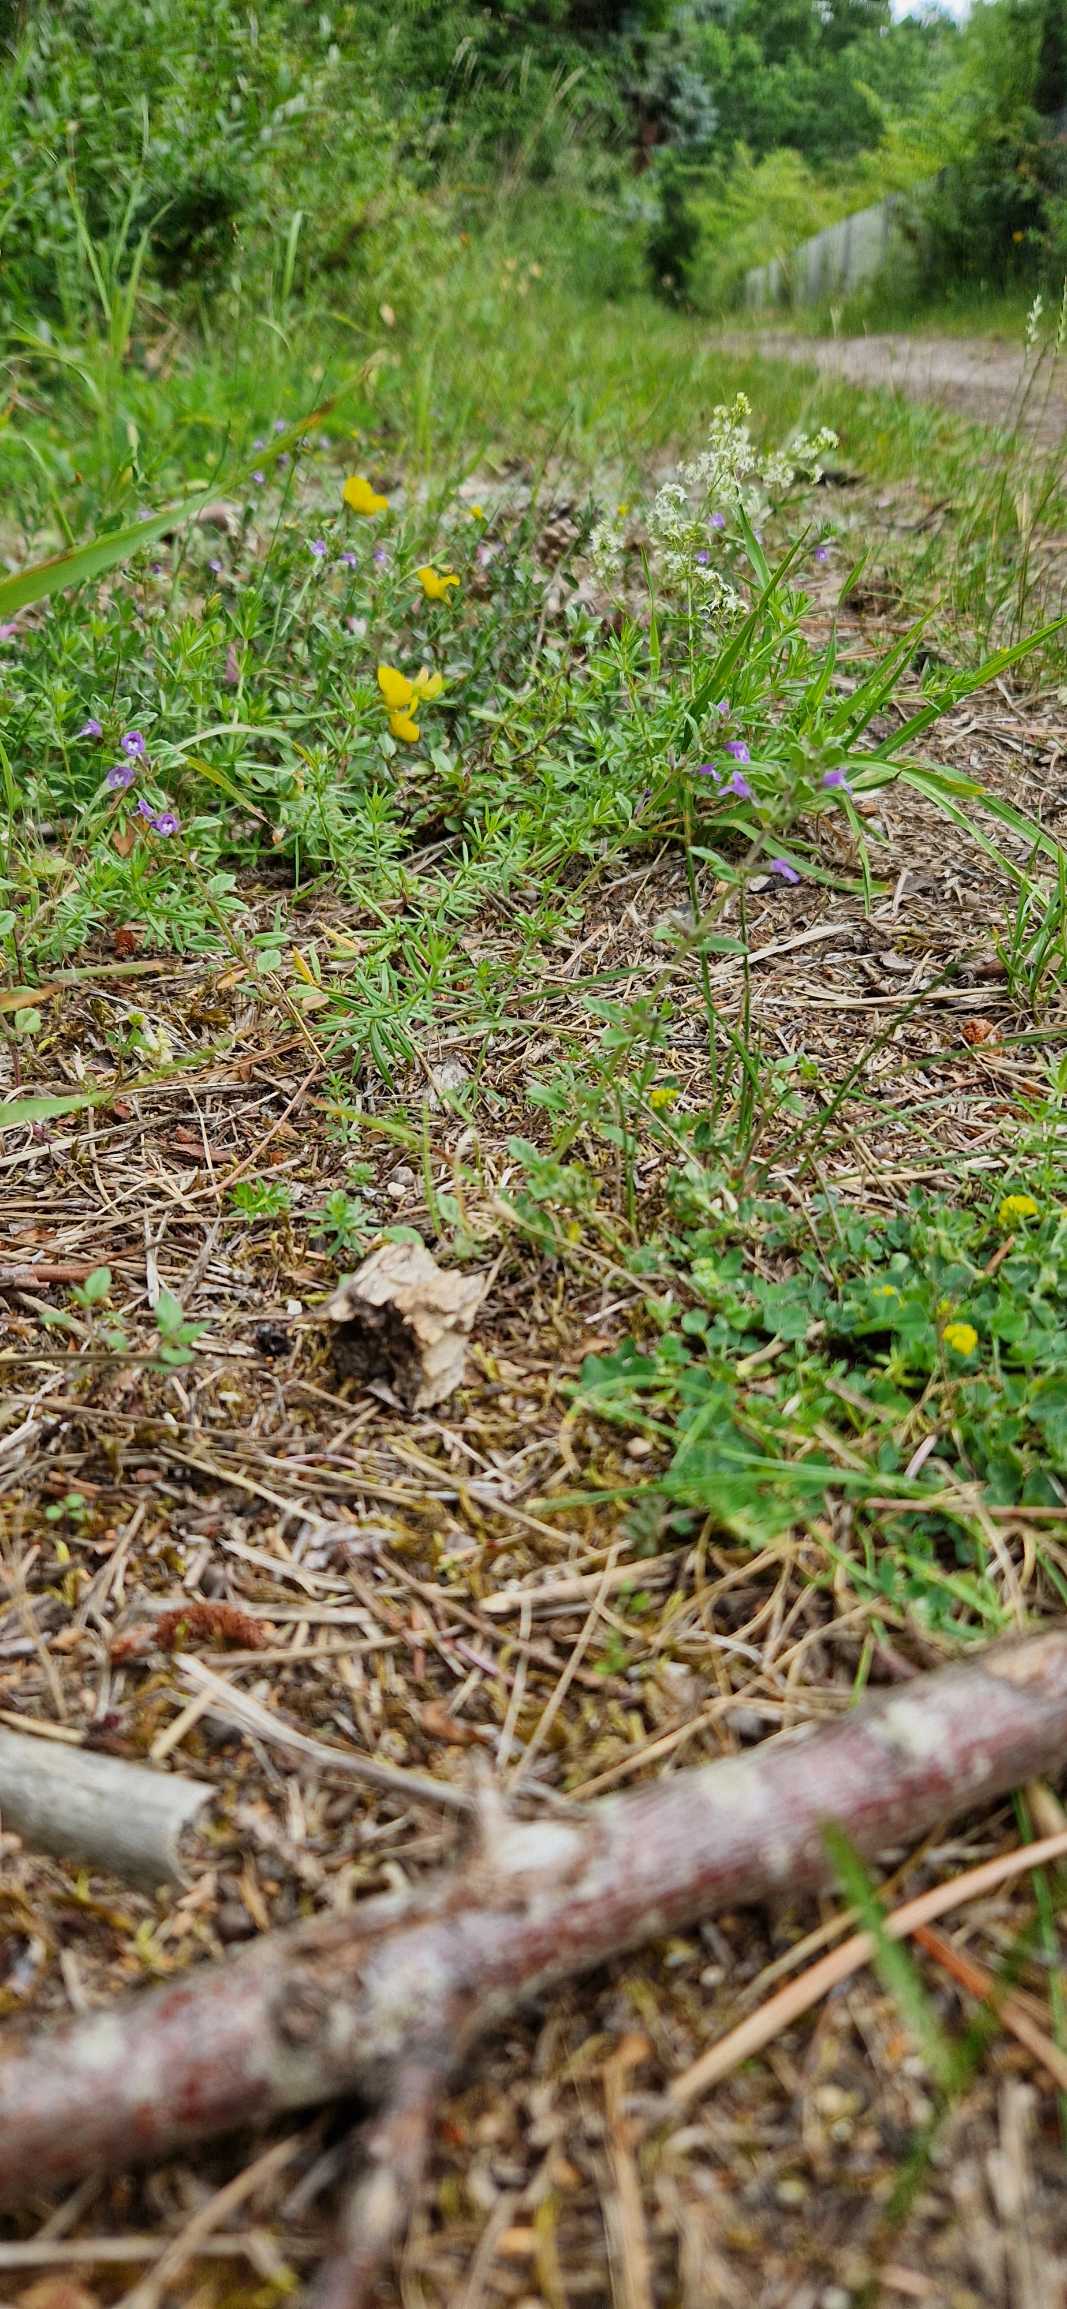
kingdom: Plantae
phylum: Tracheophyta
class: Magnoliopsida
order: Lamiales
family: Lamiaceae
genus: Clinopodium
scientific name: Clinopodium acinos
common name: Voldtimian
